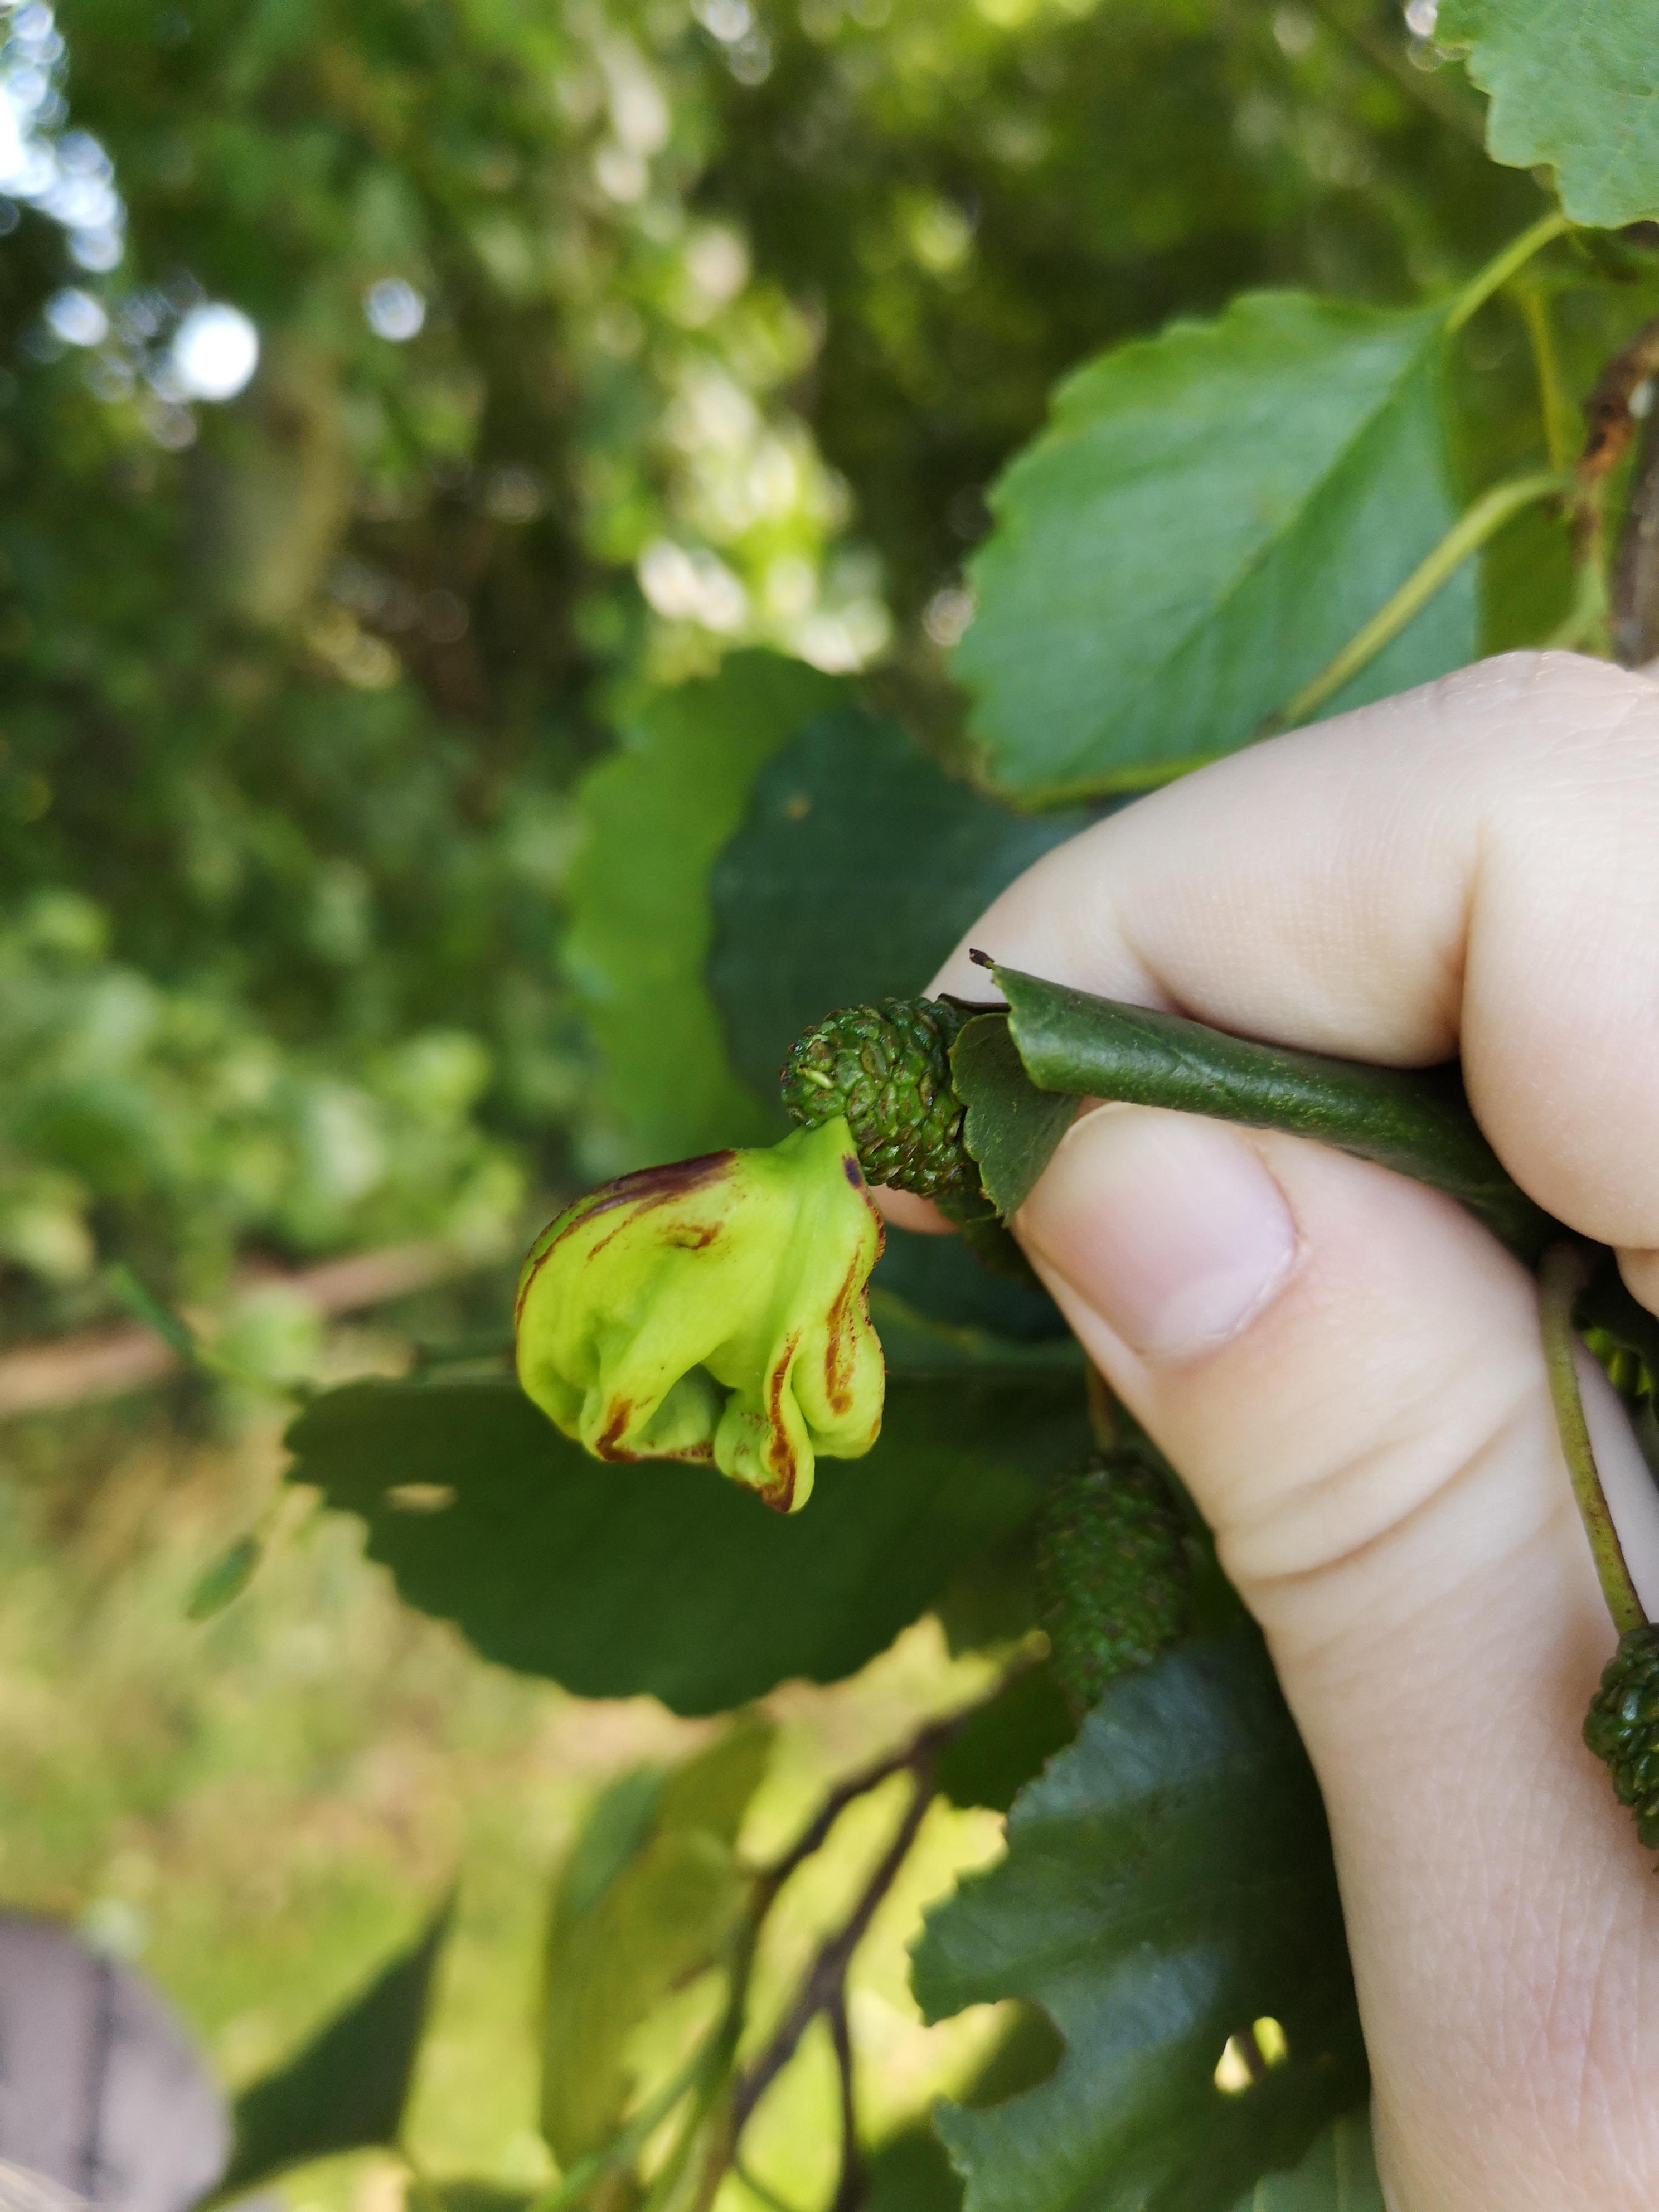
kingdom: Fungi
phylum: Ascomycota
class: Taphrinomycetes
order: Taphrinales
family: Taphrinaceae
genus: Taphrina
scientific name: Taphrina alni
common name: Alder tongue
